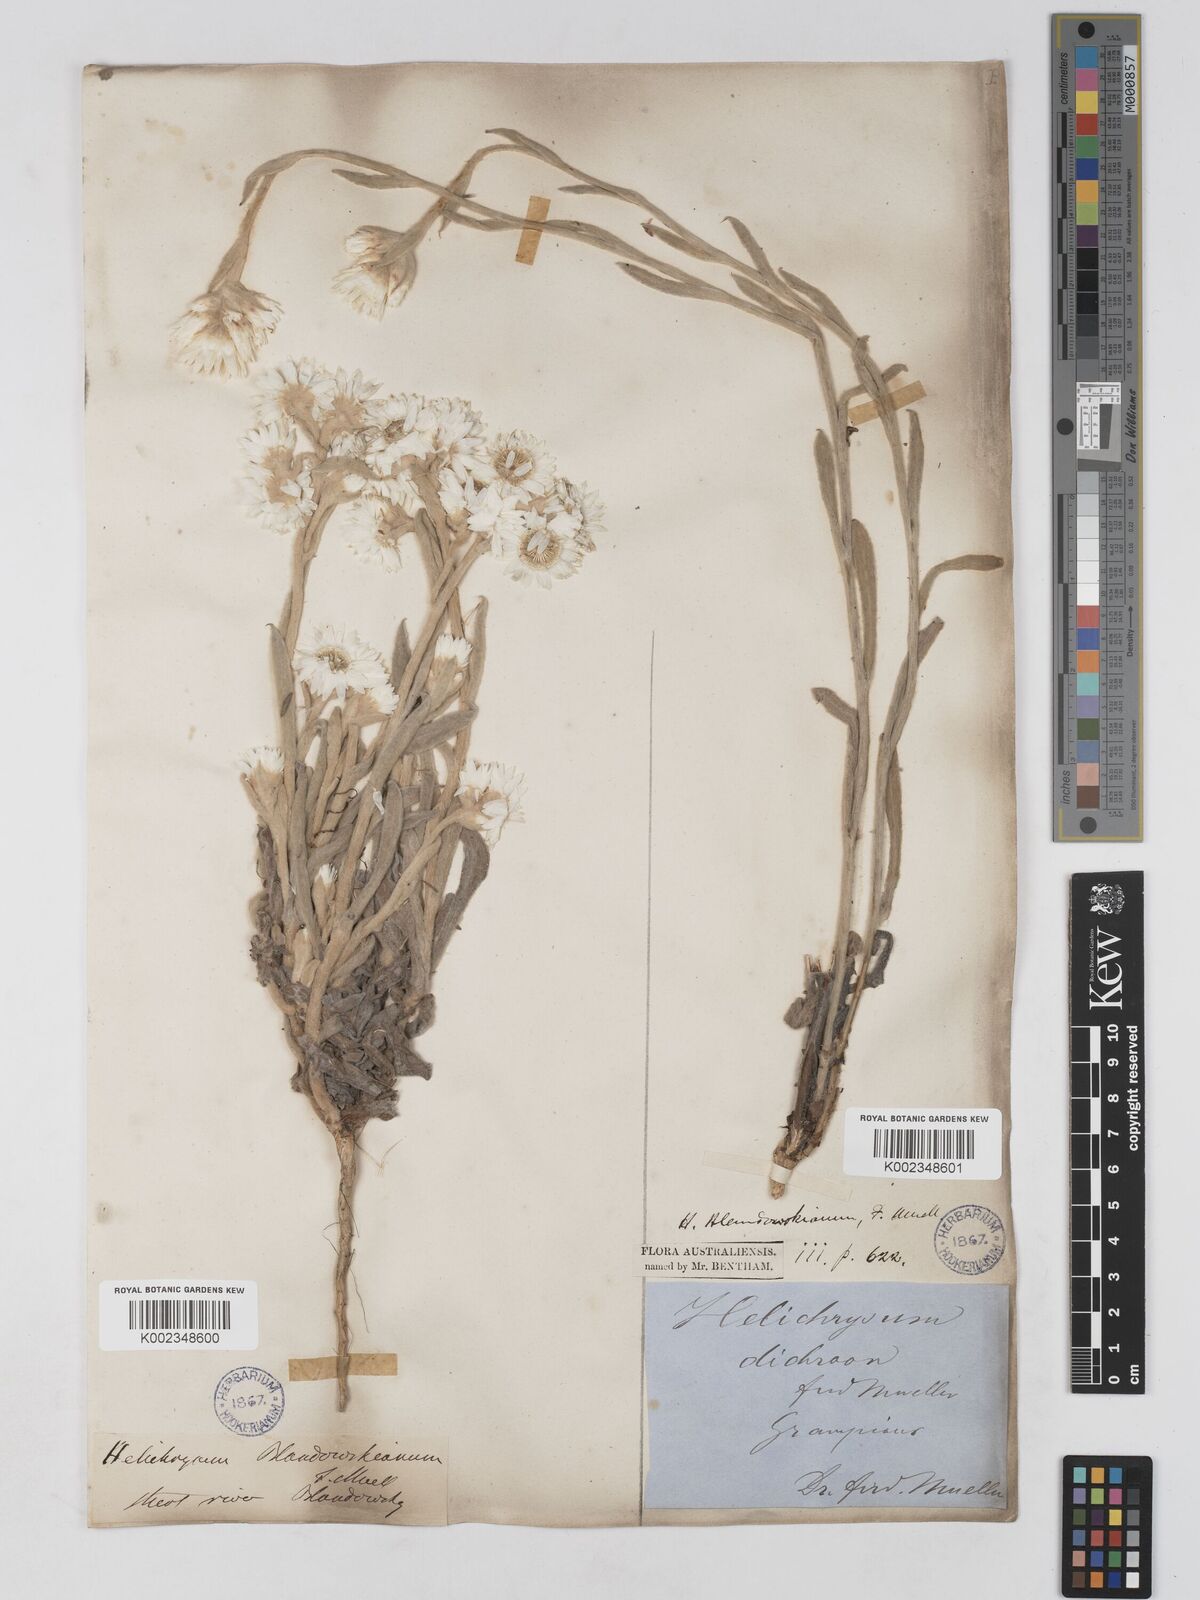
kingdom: Plantae
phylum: Tracheophyta
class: Magnoliopsida
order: Asterales
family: Asteraceae
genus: Argentipallium
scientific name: Argentipallium blandowskianum
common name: Woolly everlasting
